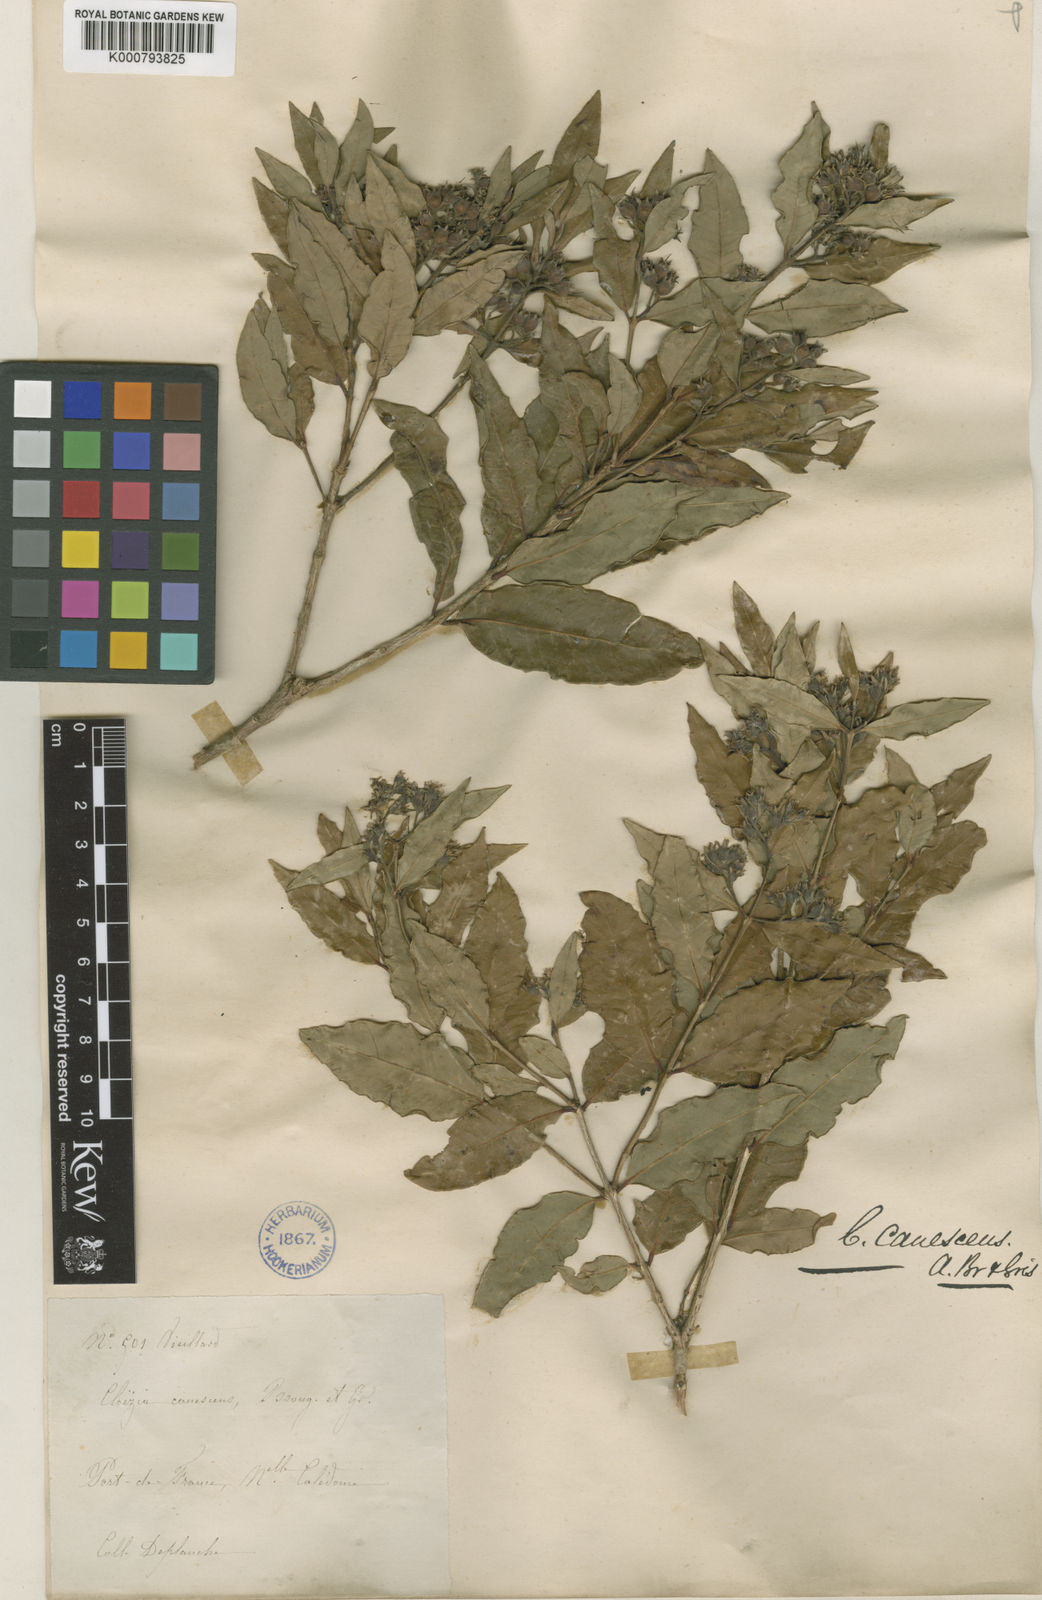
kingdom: Plantae
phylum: Tracheophyta
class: Magnoliopsida
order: Myrtales
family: Myrtaceae
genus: Cloezia
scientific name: Cloezia artensis
